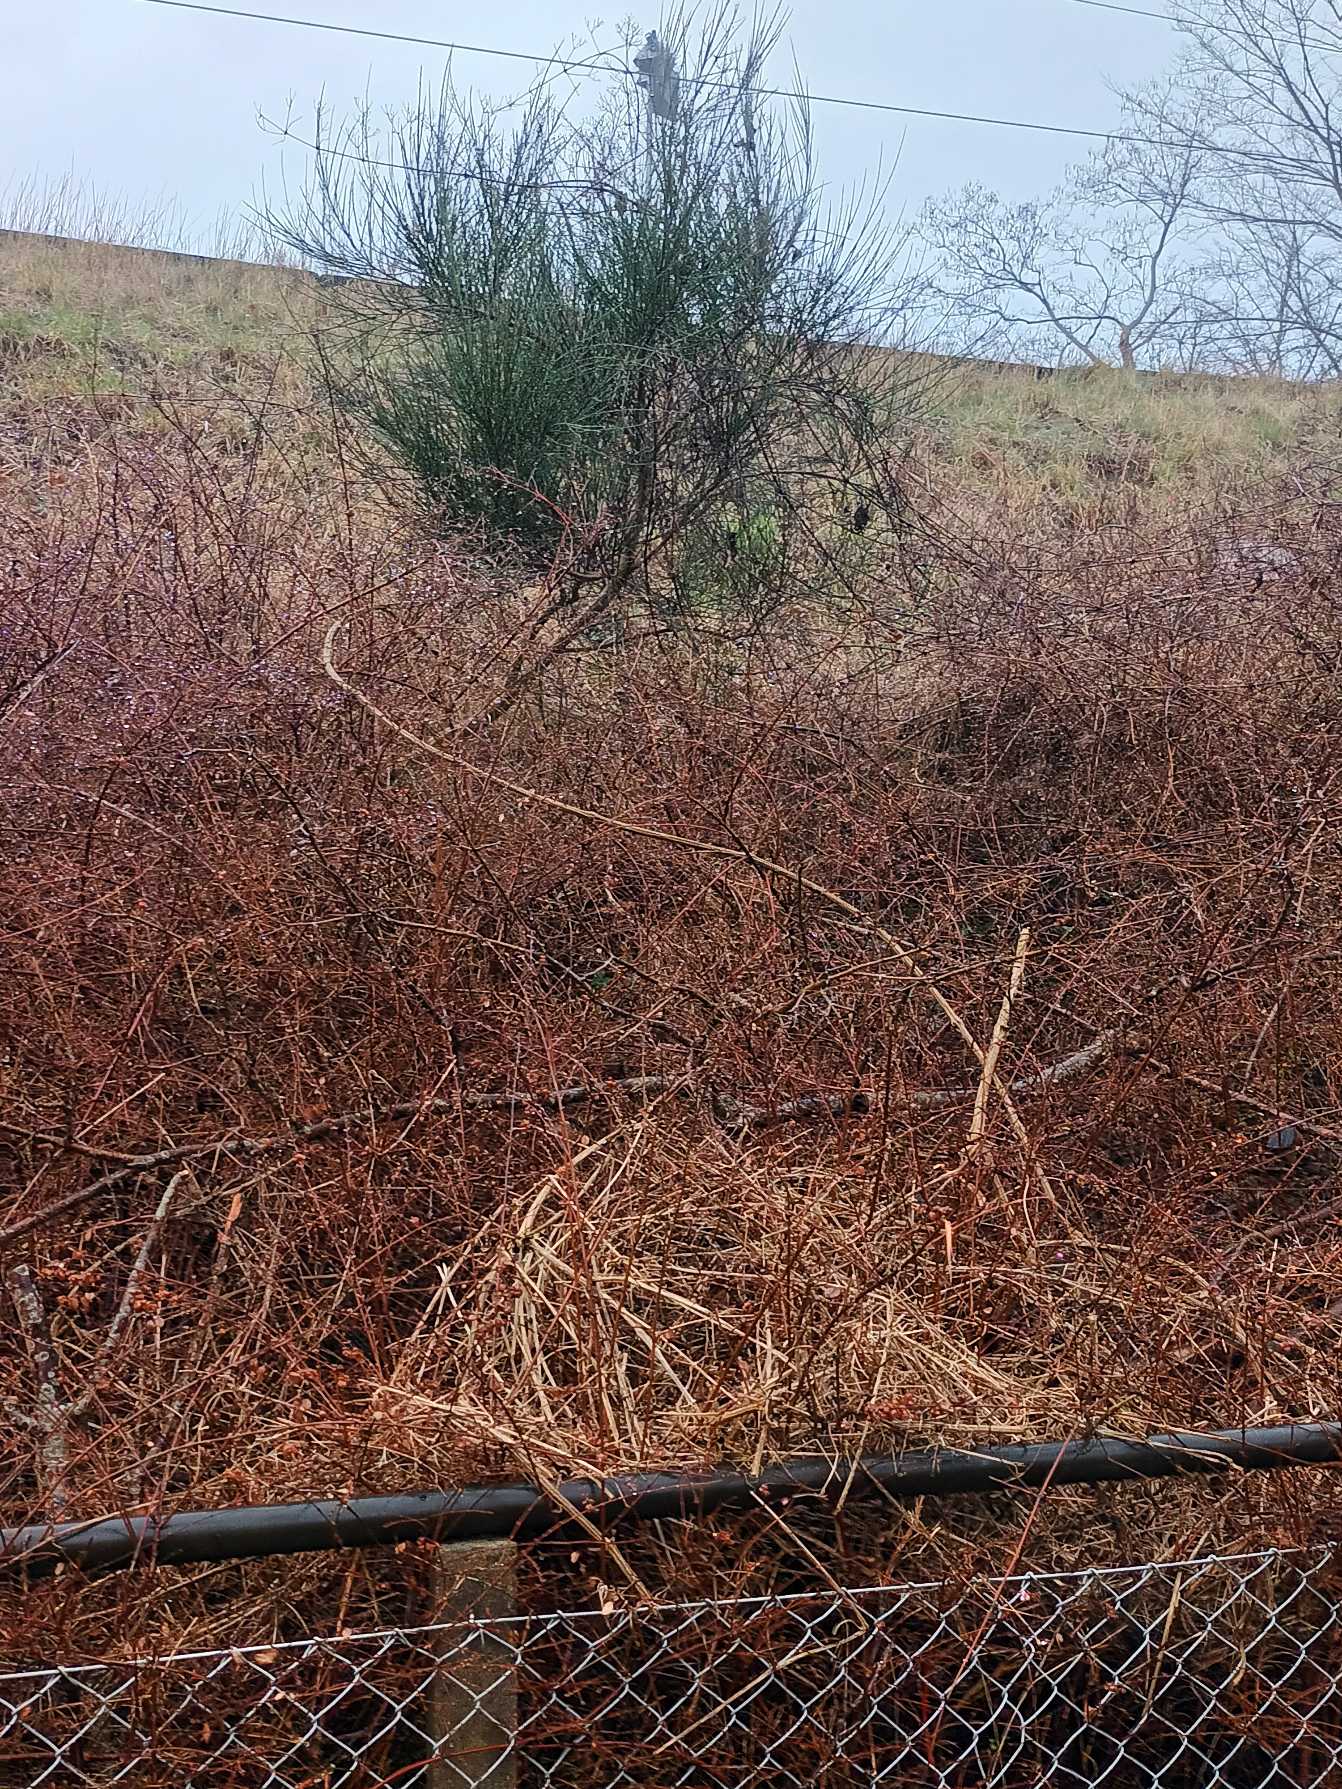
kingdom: Plantae
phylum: Tracheophyta
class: Magnoliopsida
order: Fabales
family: Fabaceae
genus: Cytisus
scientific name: Cytisus scoparius
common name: Almindelig gyvel
